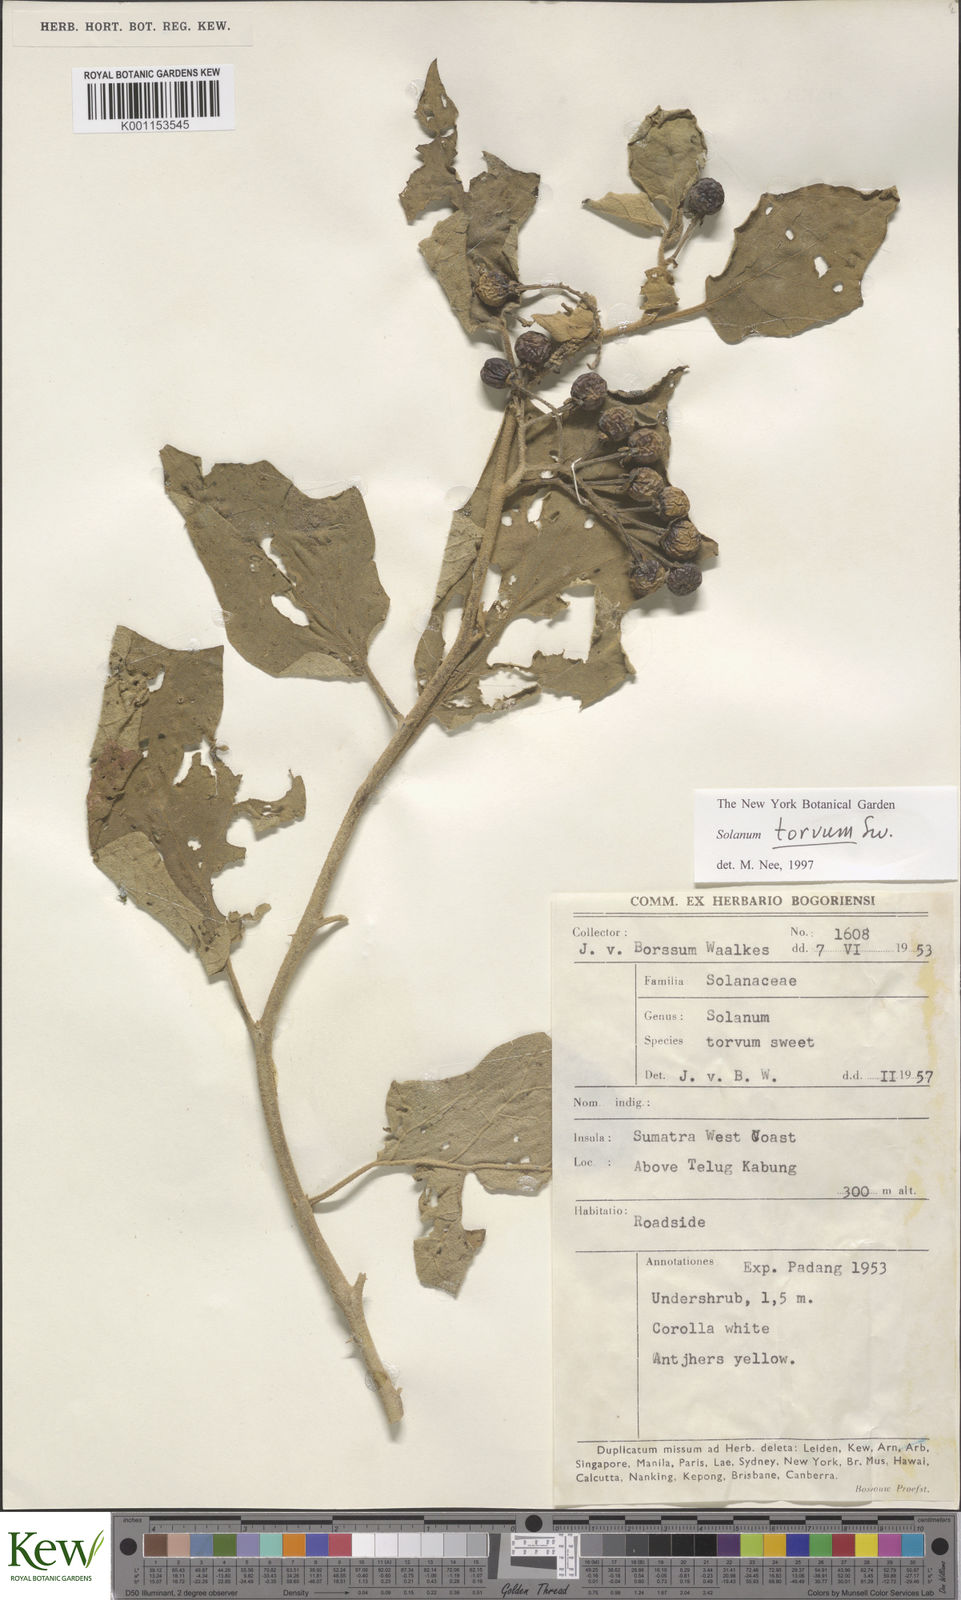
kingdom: Plantae
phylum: Tracheophyta
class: Magnoliopsida
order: Solanales
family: Solanaceae
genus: Solanum
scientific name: Solanum torvum
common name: Turkey berry
